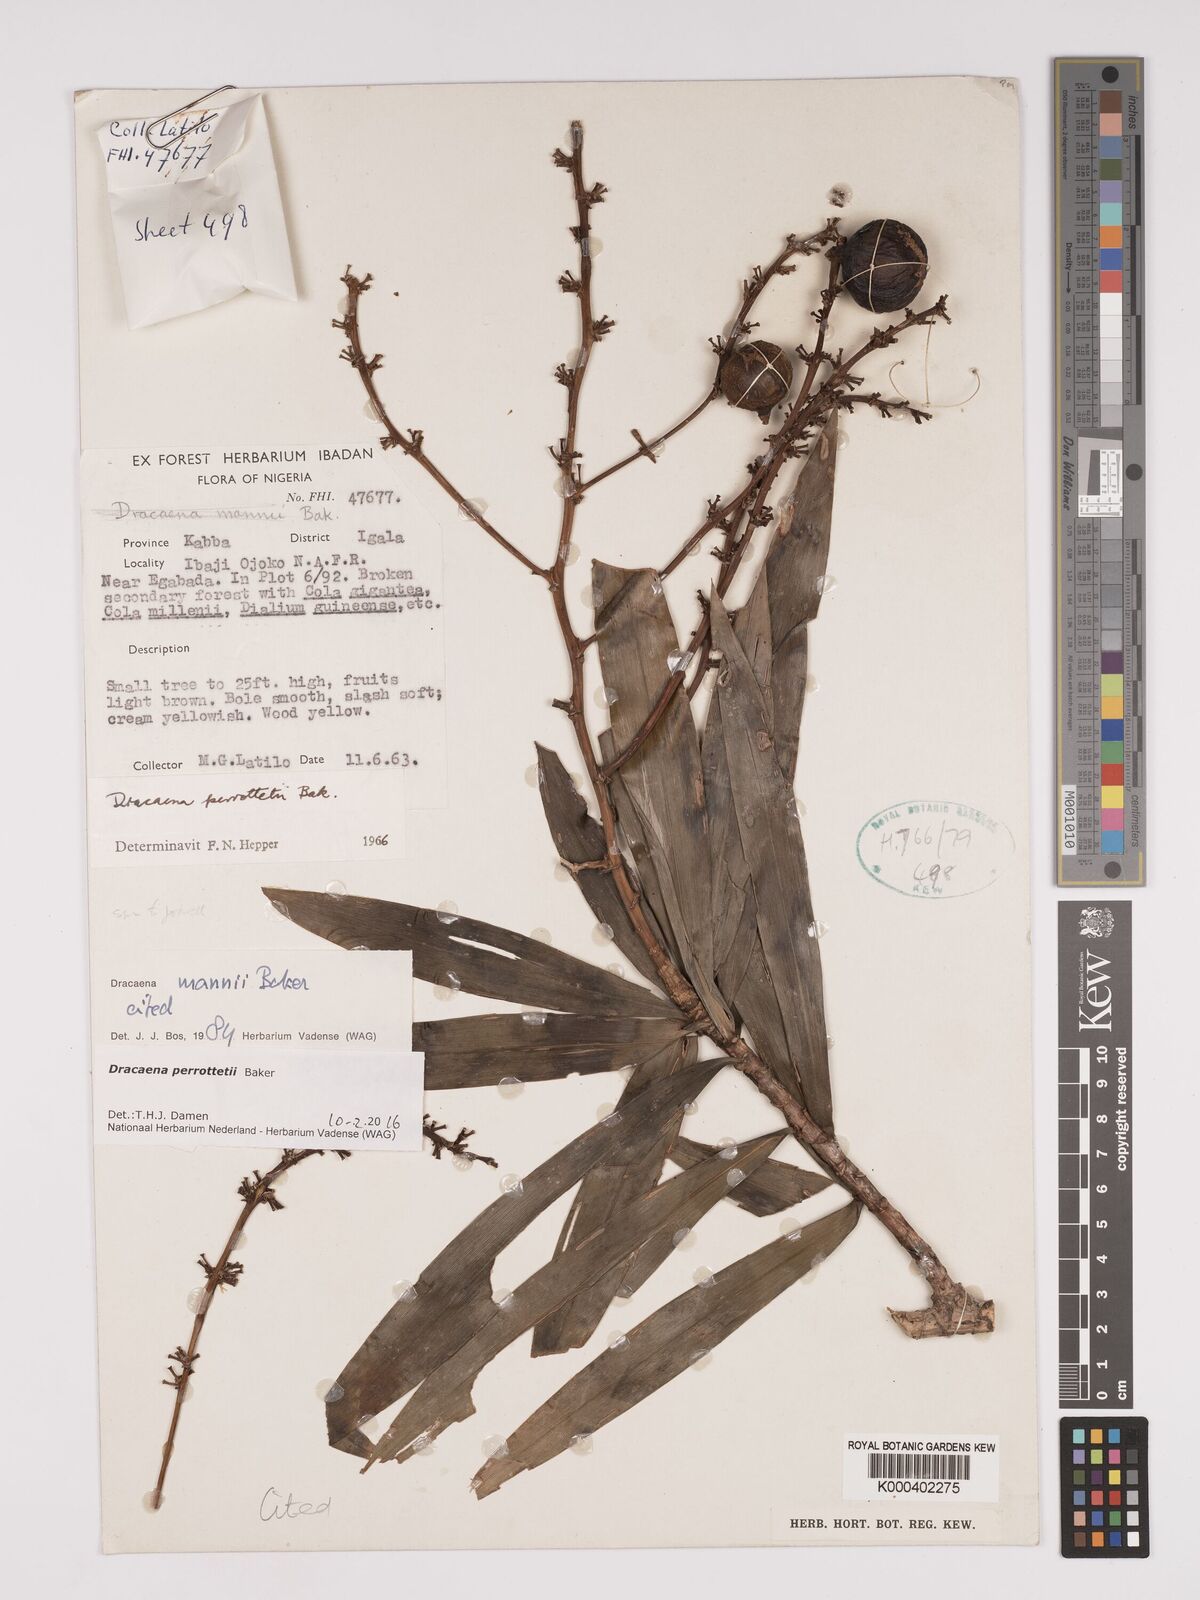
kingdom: Plantae
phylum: Tracheophyta
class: Liliopsida
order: Asparagales
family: Asparagaceae
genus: Dracaena
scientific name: Dracaena perrottetii
